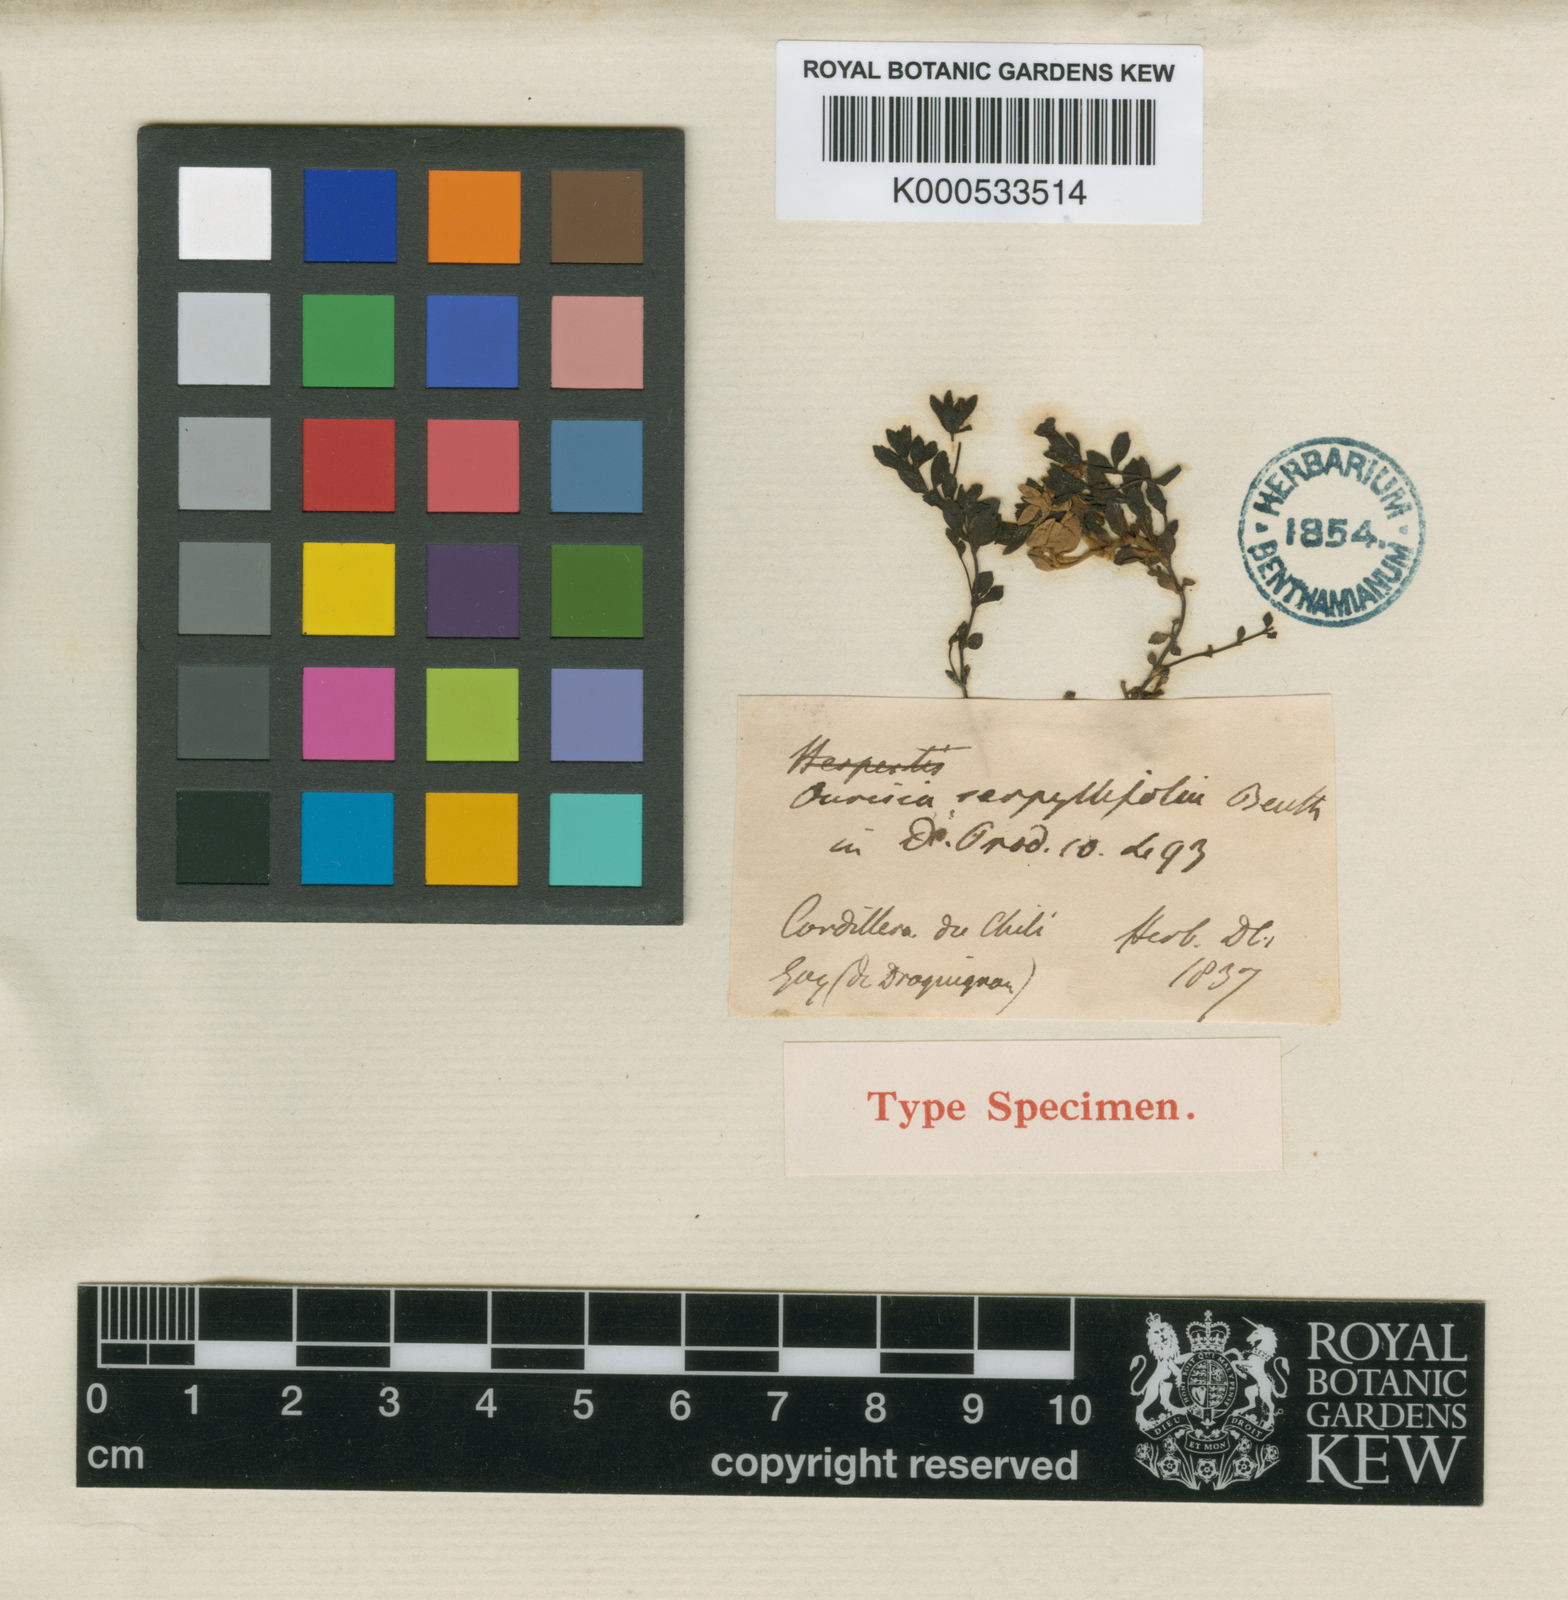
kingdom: Plantae
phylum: Tracheophyta
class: Magnoliopsida
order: Lamiales
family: Plantaginaceae
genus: Ourisia
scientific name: Ourisia serpyllifolia
